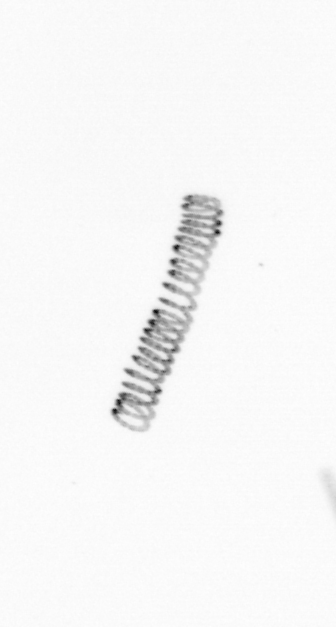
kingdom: Chromista
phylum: Ochrophyta
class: Bacillariophyceae
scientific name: Bacillariophyceae
